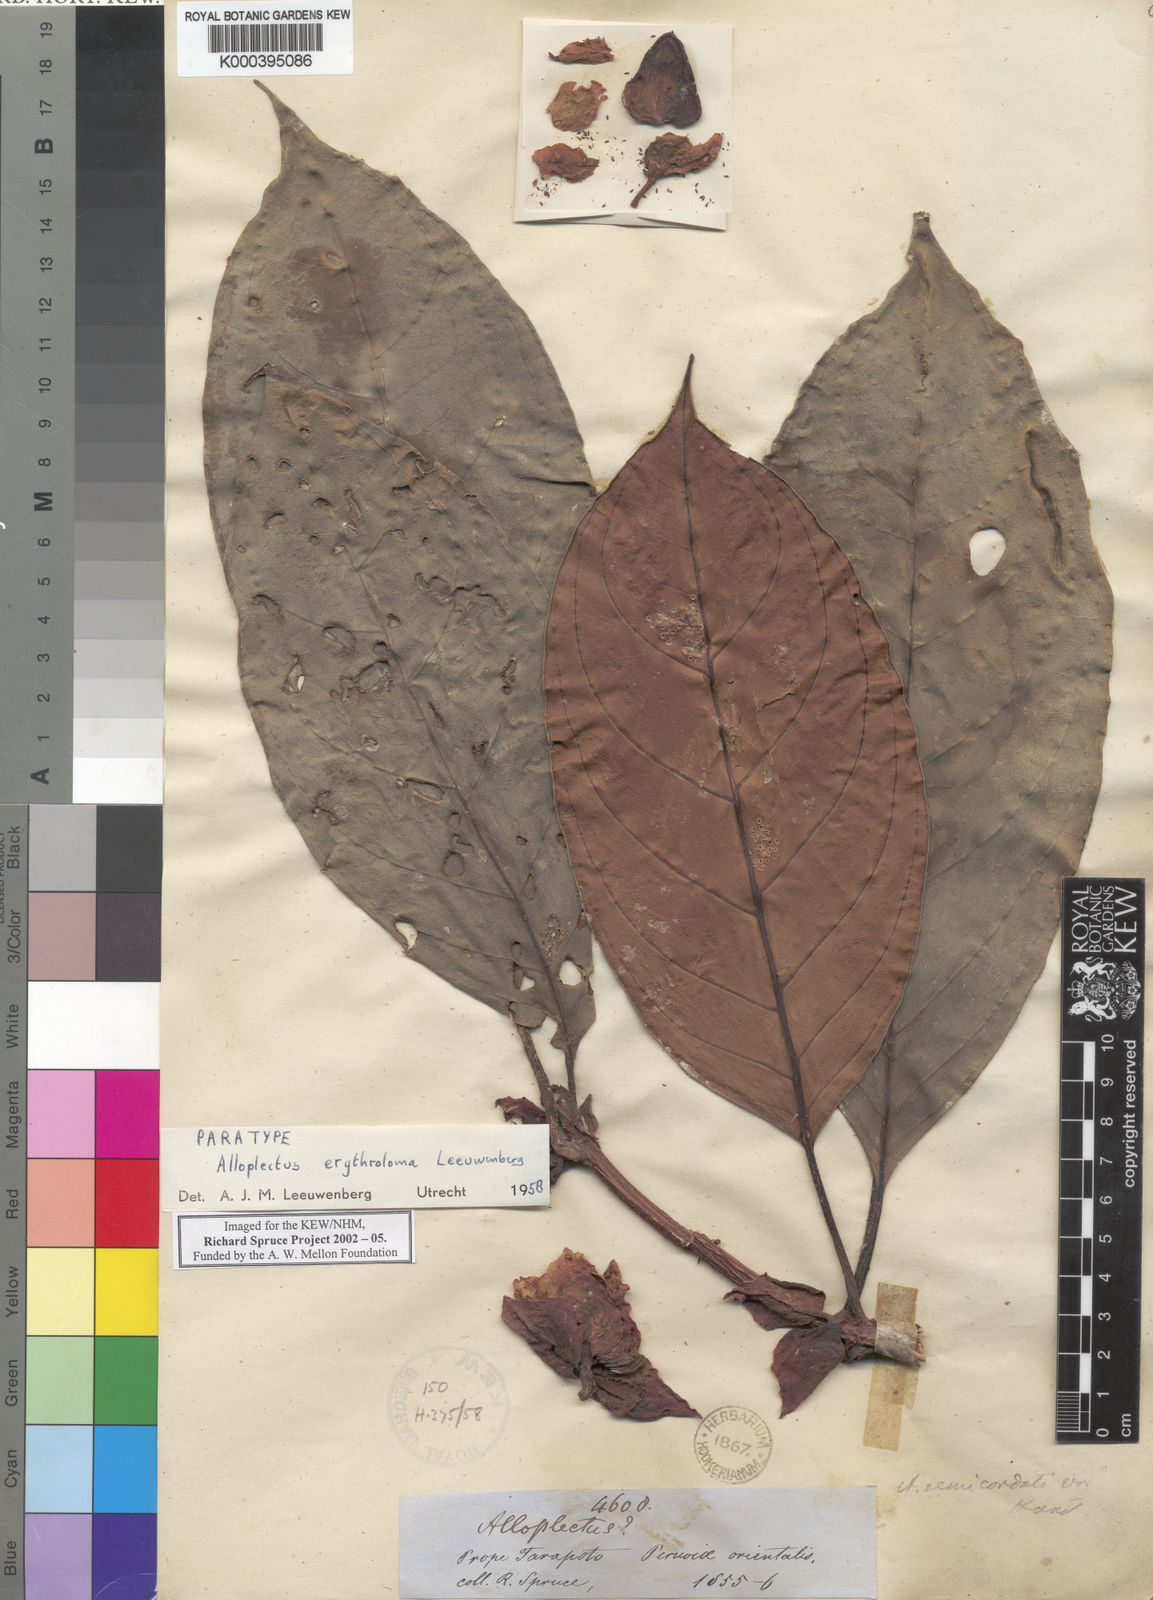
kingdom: Plantae
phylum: Tracheophyta
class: Magnoliopsida
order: Lamiales
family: Gesneriaceae
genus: Drymonia
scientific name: Drymonia erythroloma
